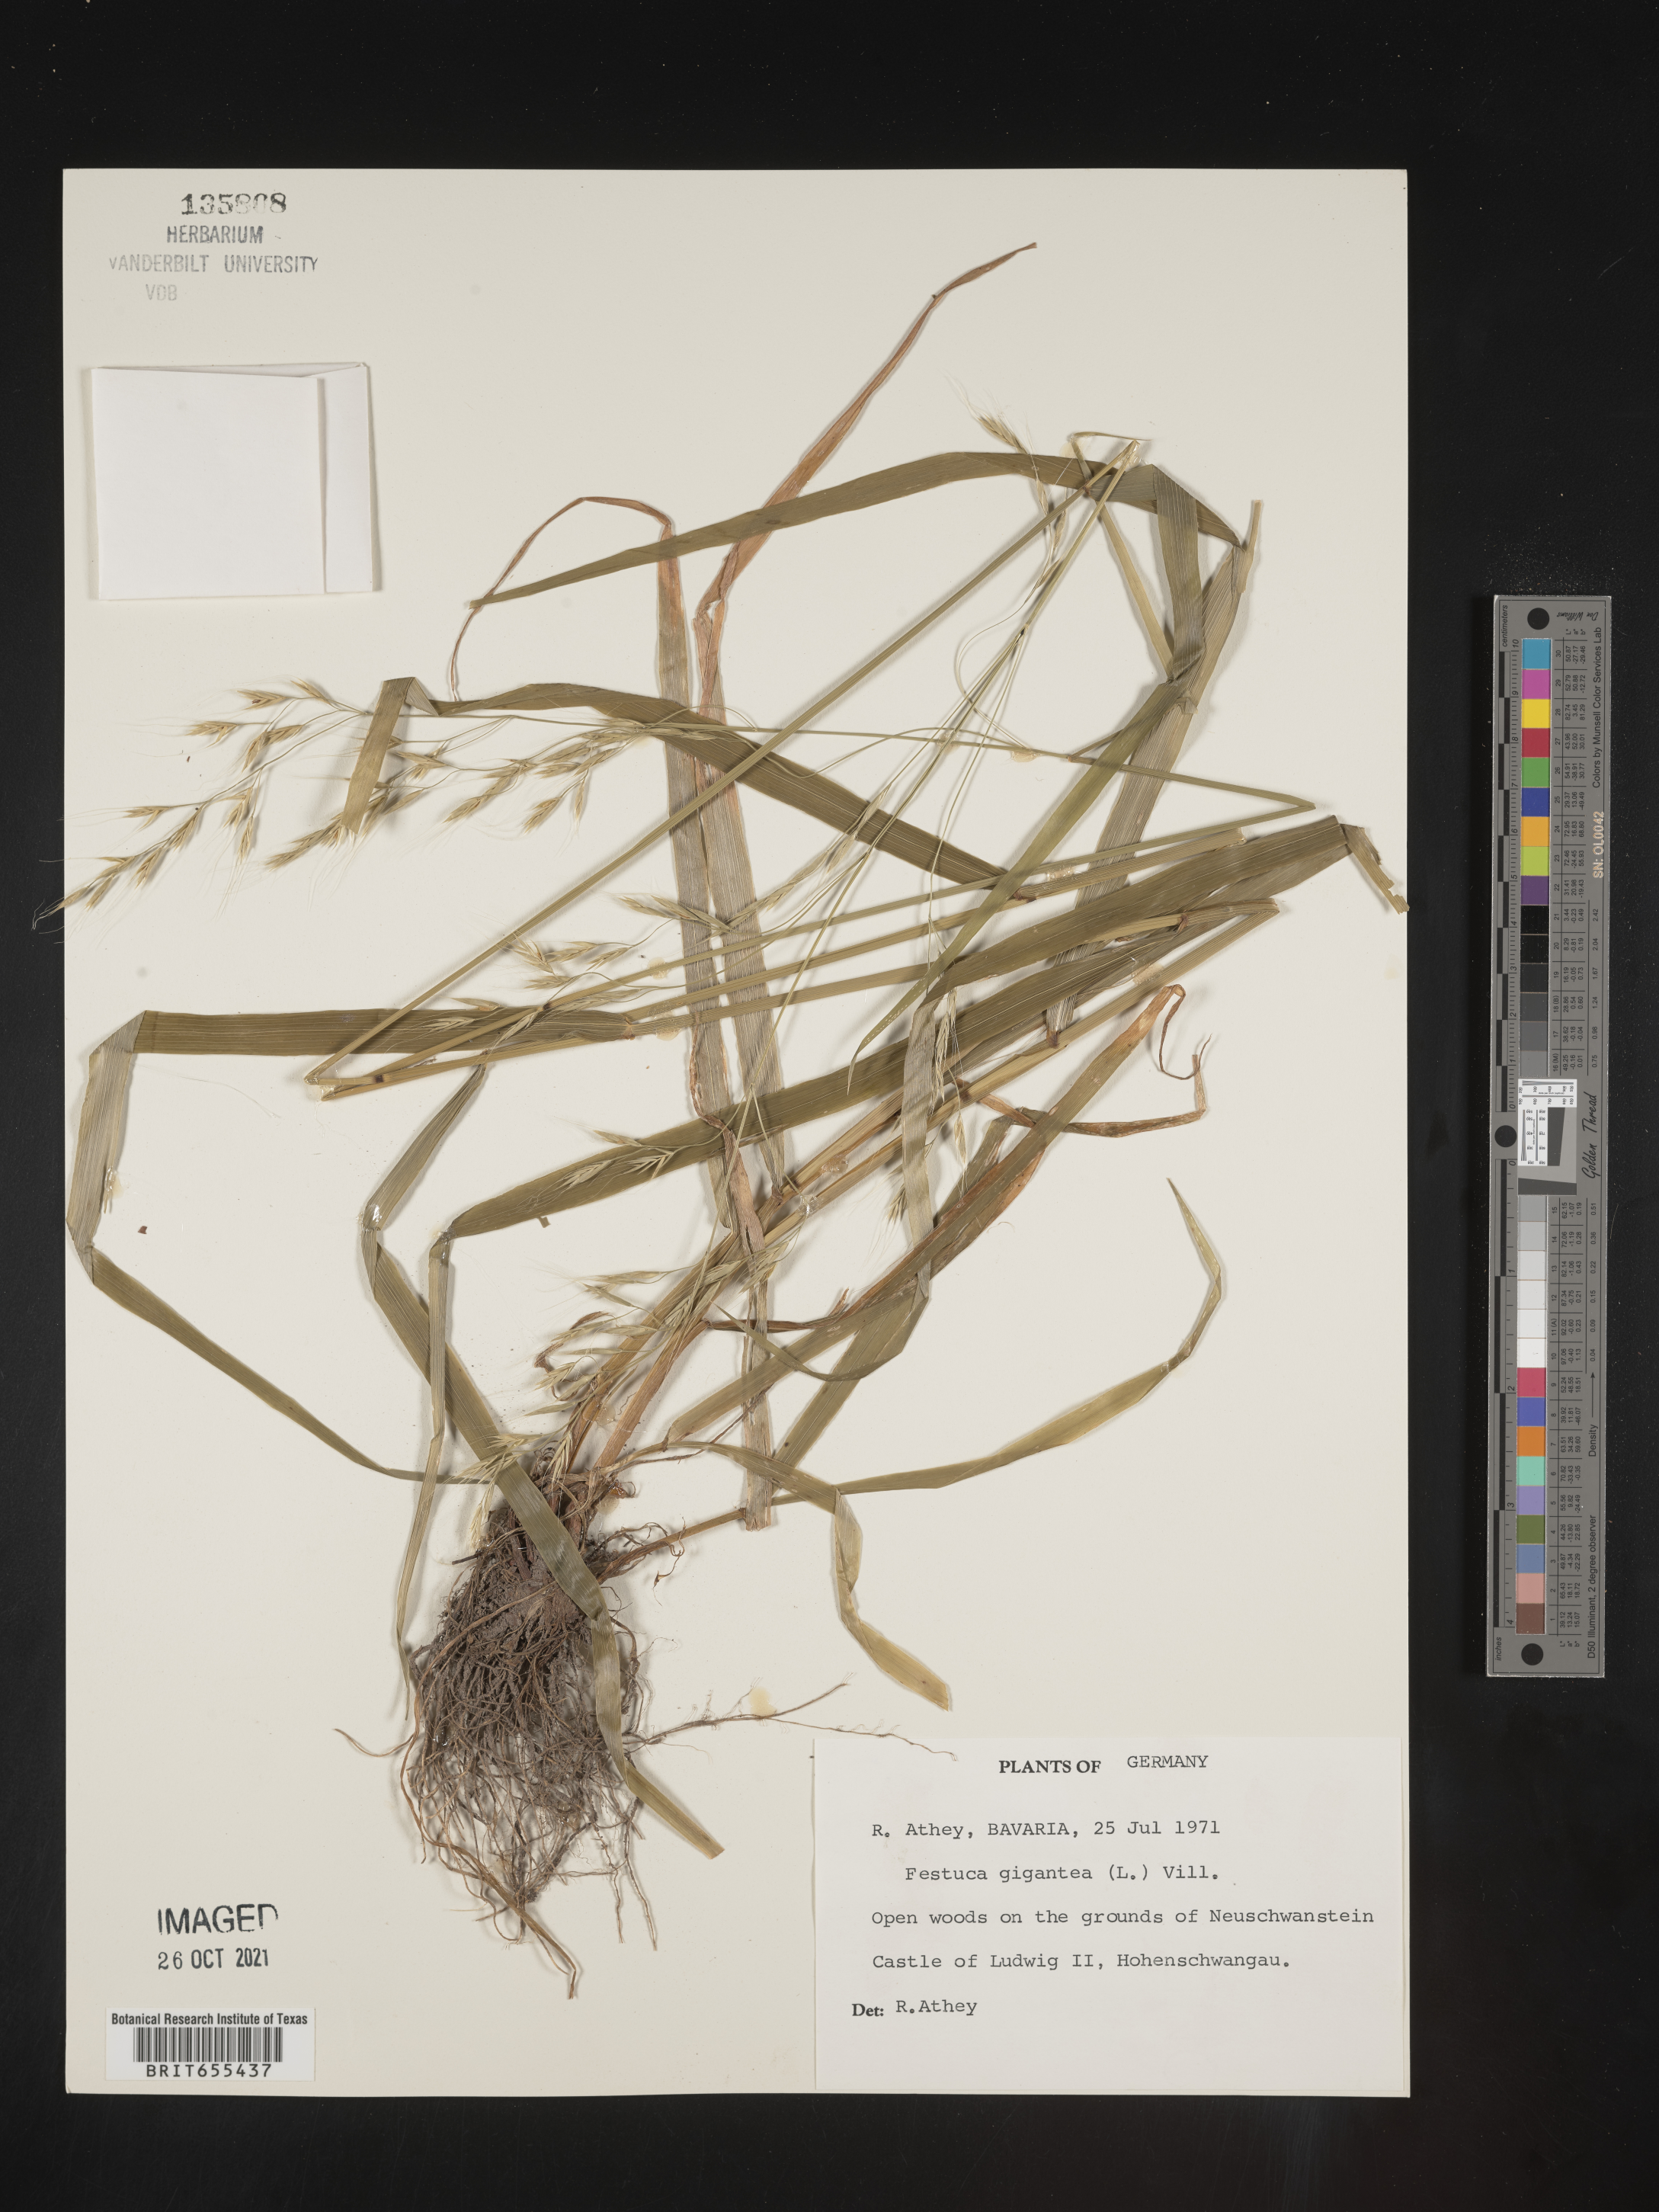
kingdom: Plantae
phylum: Tracheophyta
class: Liliopsida
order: Poales
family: Poaceae
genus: Festuca
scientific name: Festuca
